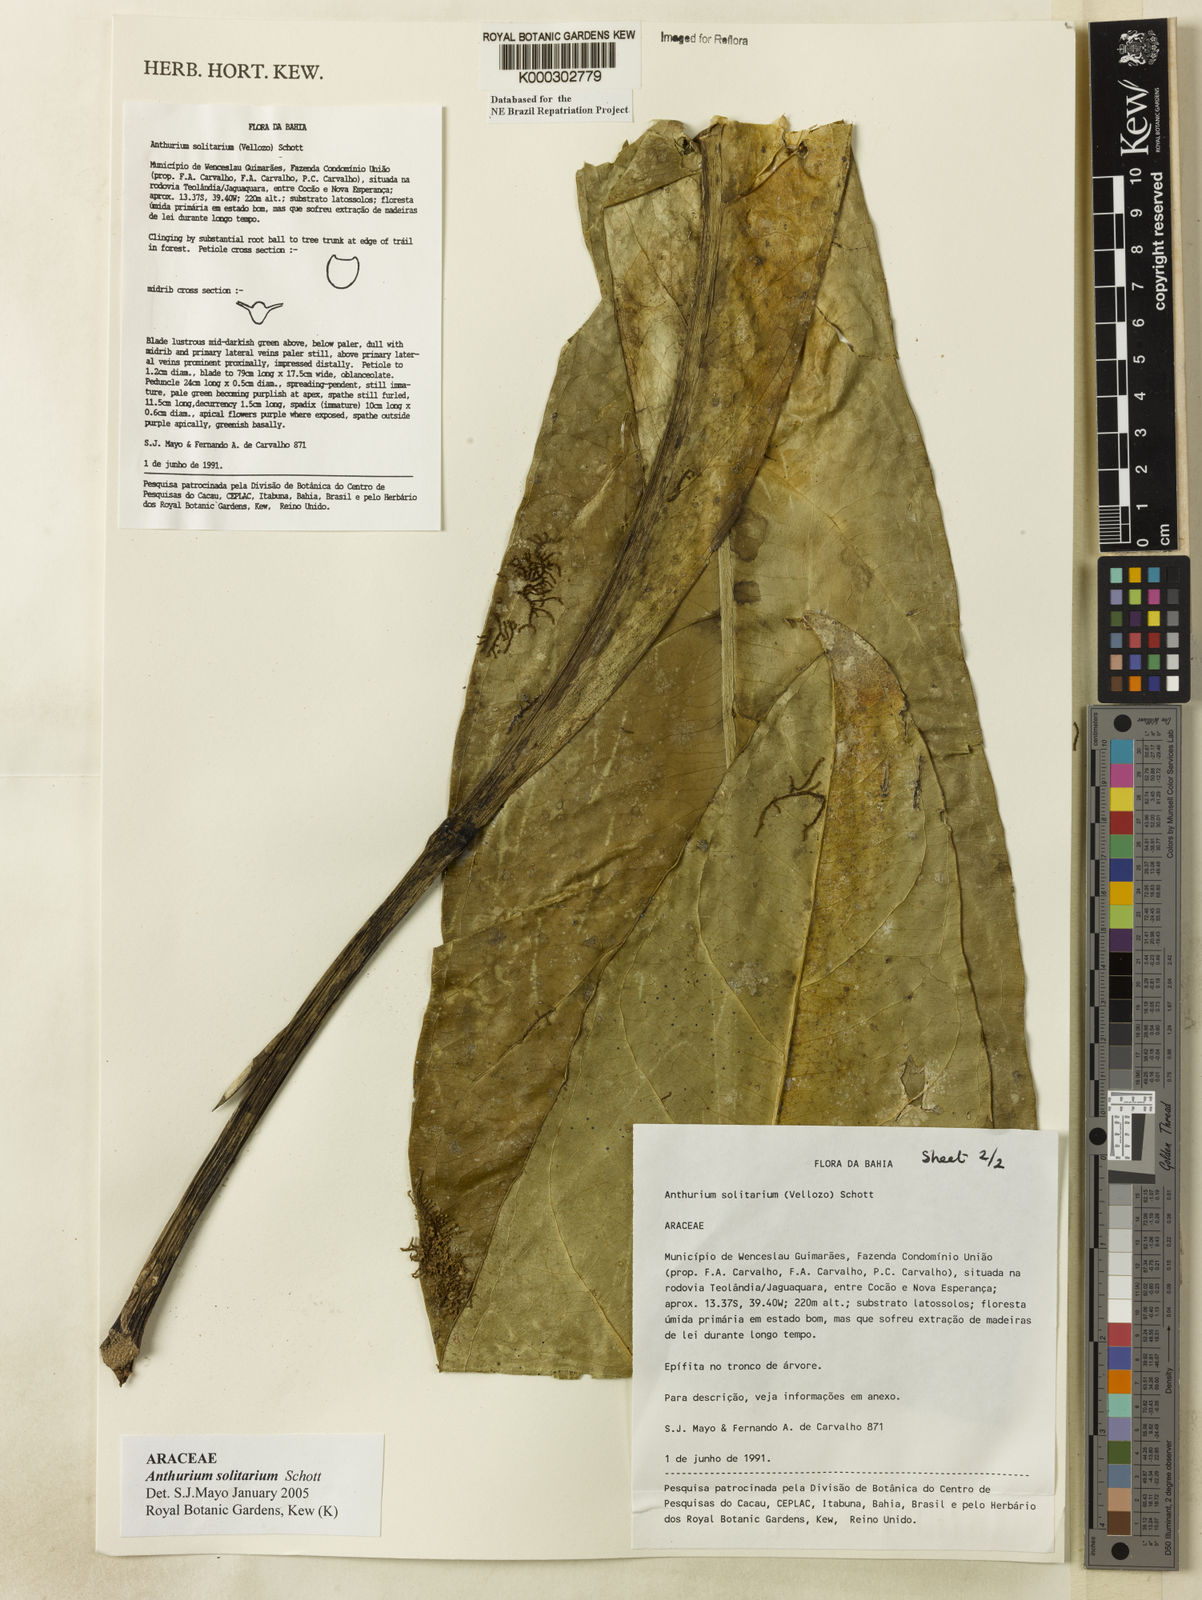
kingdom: Plantae
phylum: Tracheophyta
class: Liliopsida
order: Alismatales
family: Araceae
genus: Anthurium
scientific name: Anthurium solitarium
